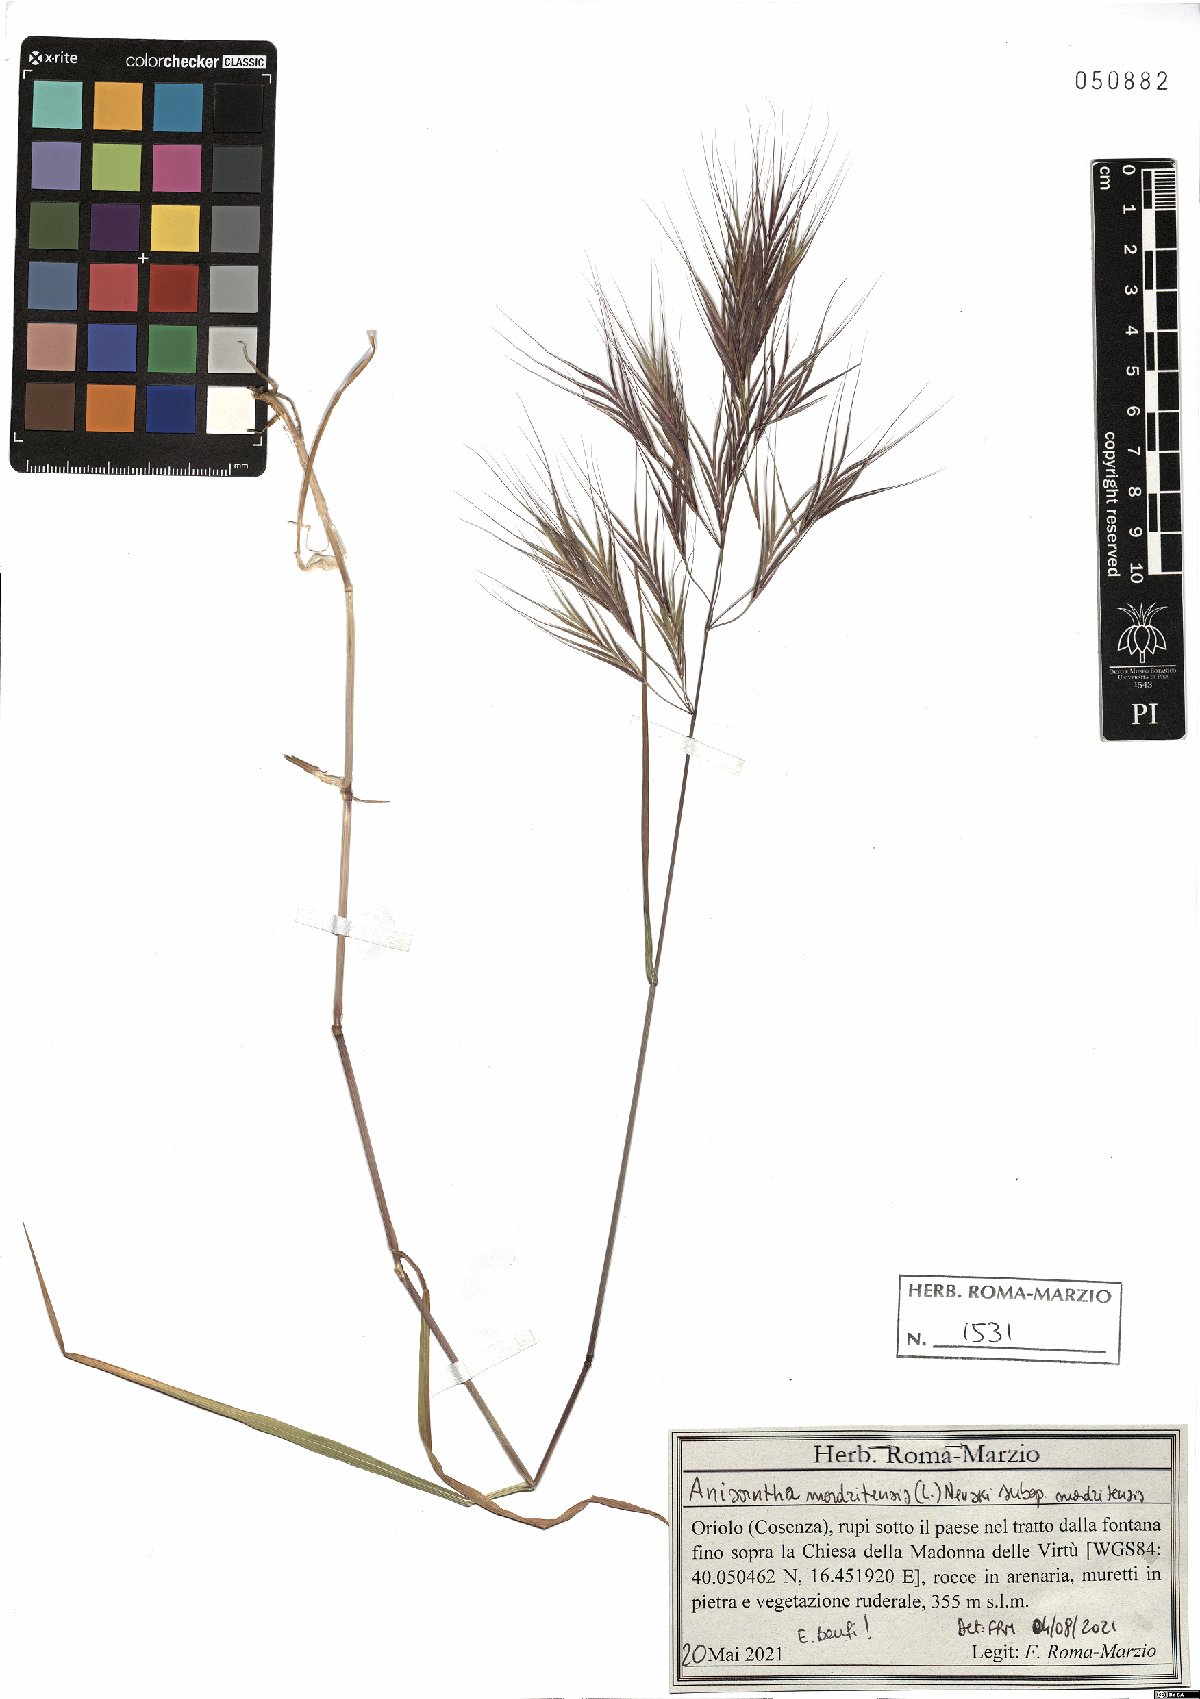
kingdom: Plantae
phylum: Tracheophyta
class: Liliopsida
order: Poales
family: Poaceae
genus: Bromus
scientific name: Bromus madritensis
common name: Compact brome
